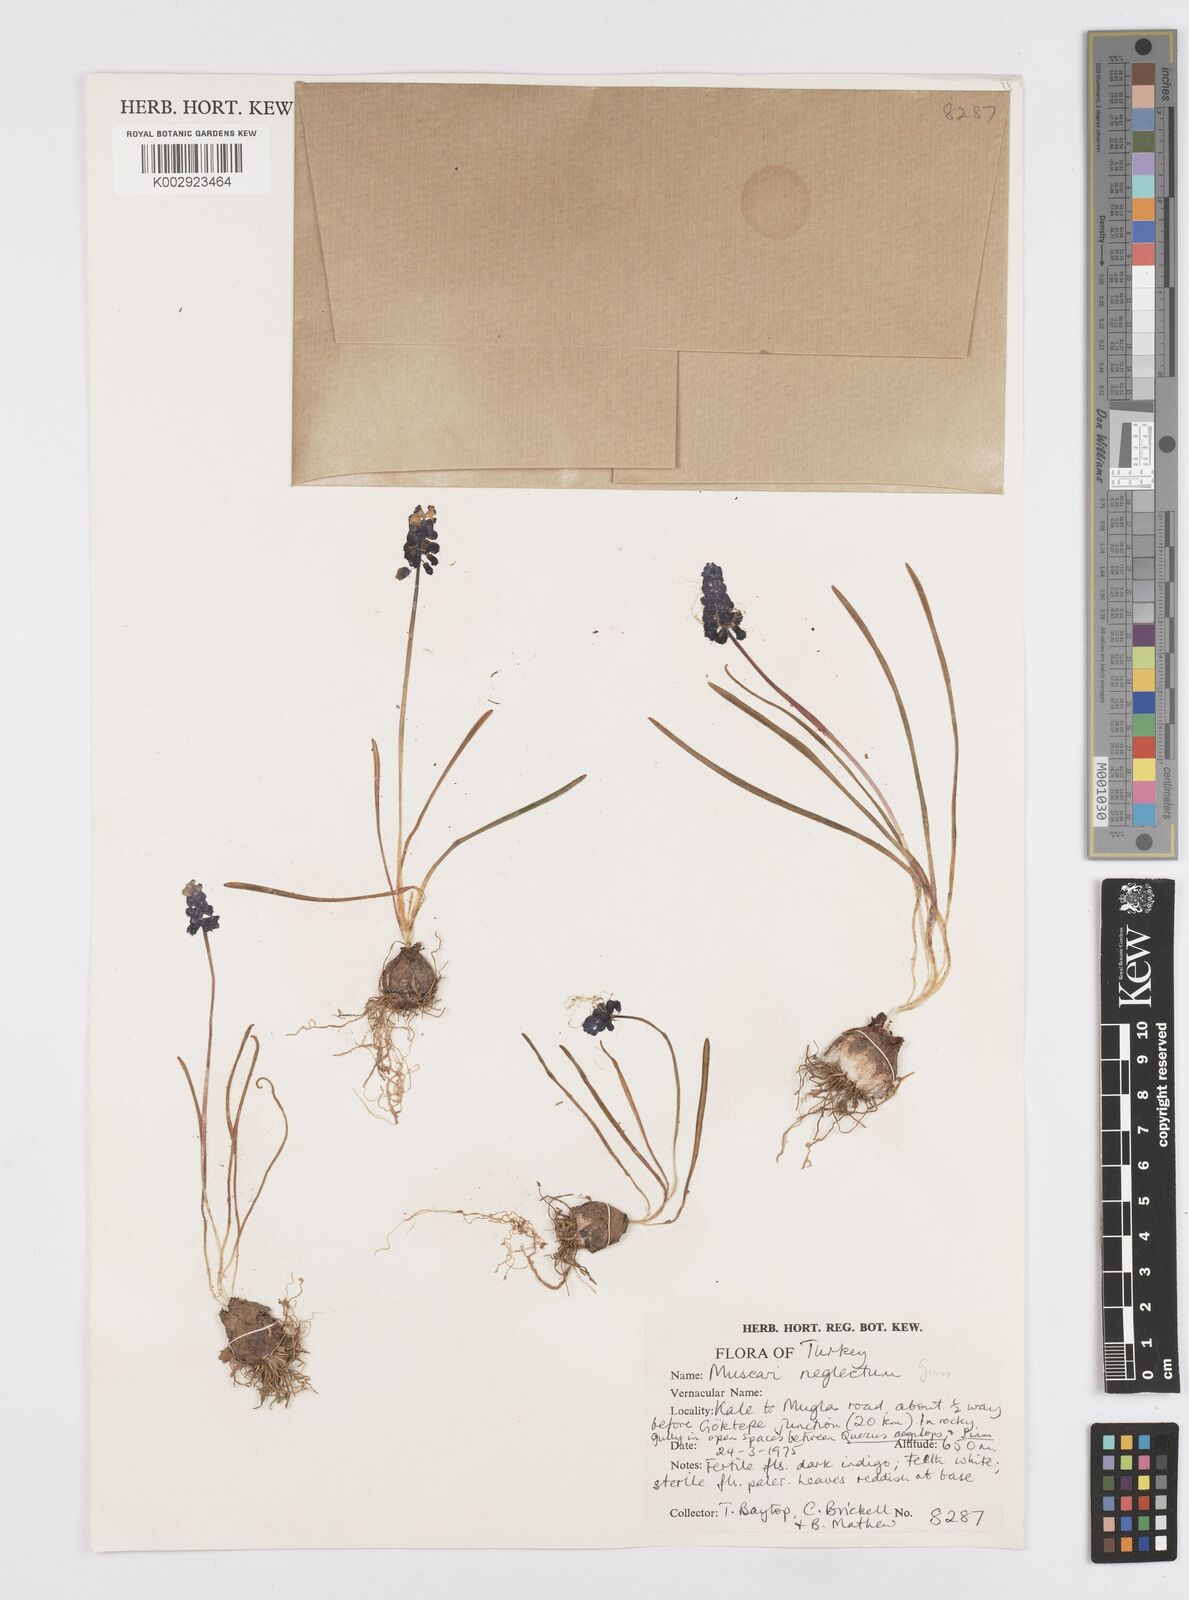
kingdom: Plantae
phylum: Tracheophyta
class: Liliopsida
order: Asparagales
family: Asparagaceae
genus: Muscari
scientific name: Muscari neglectum
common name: Grape-hyacinth
